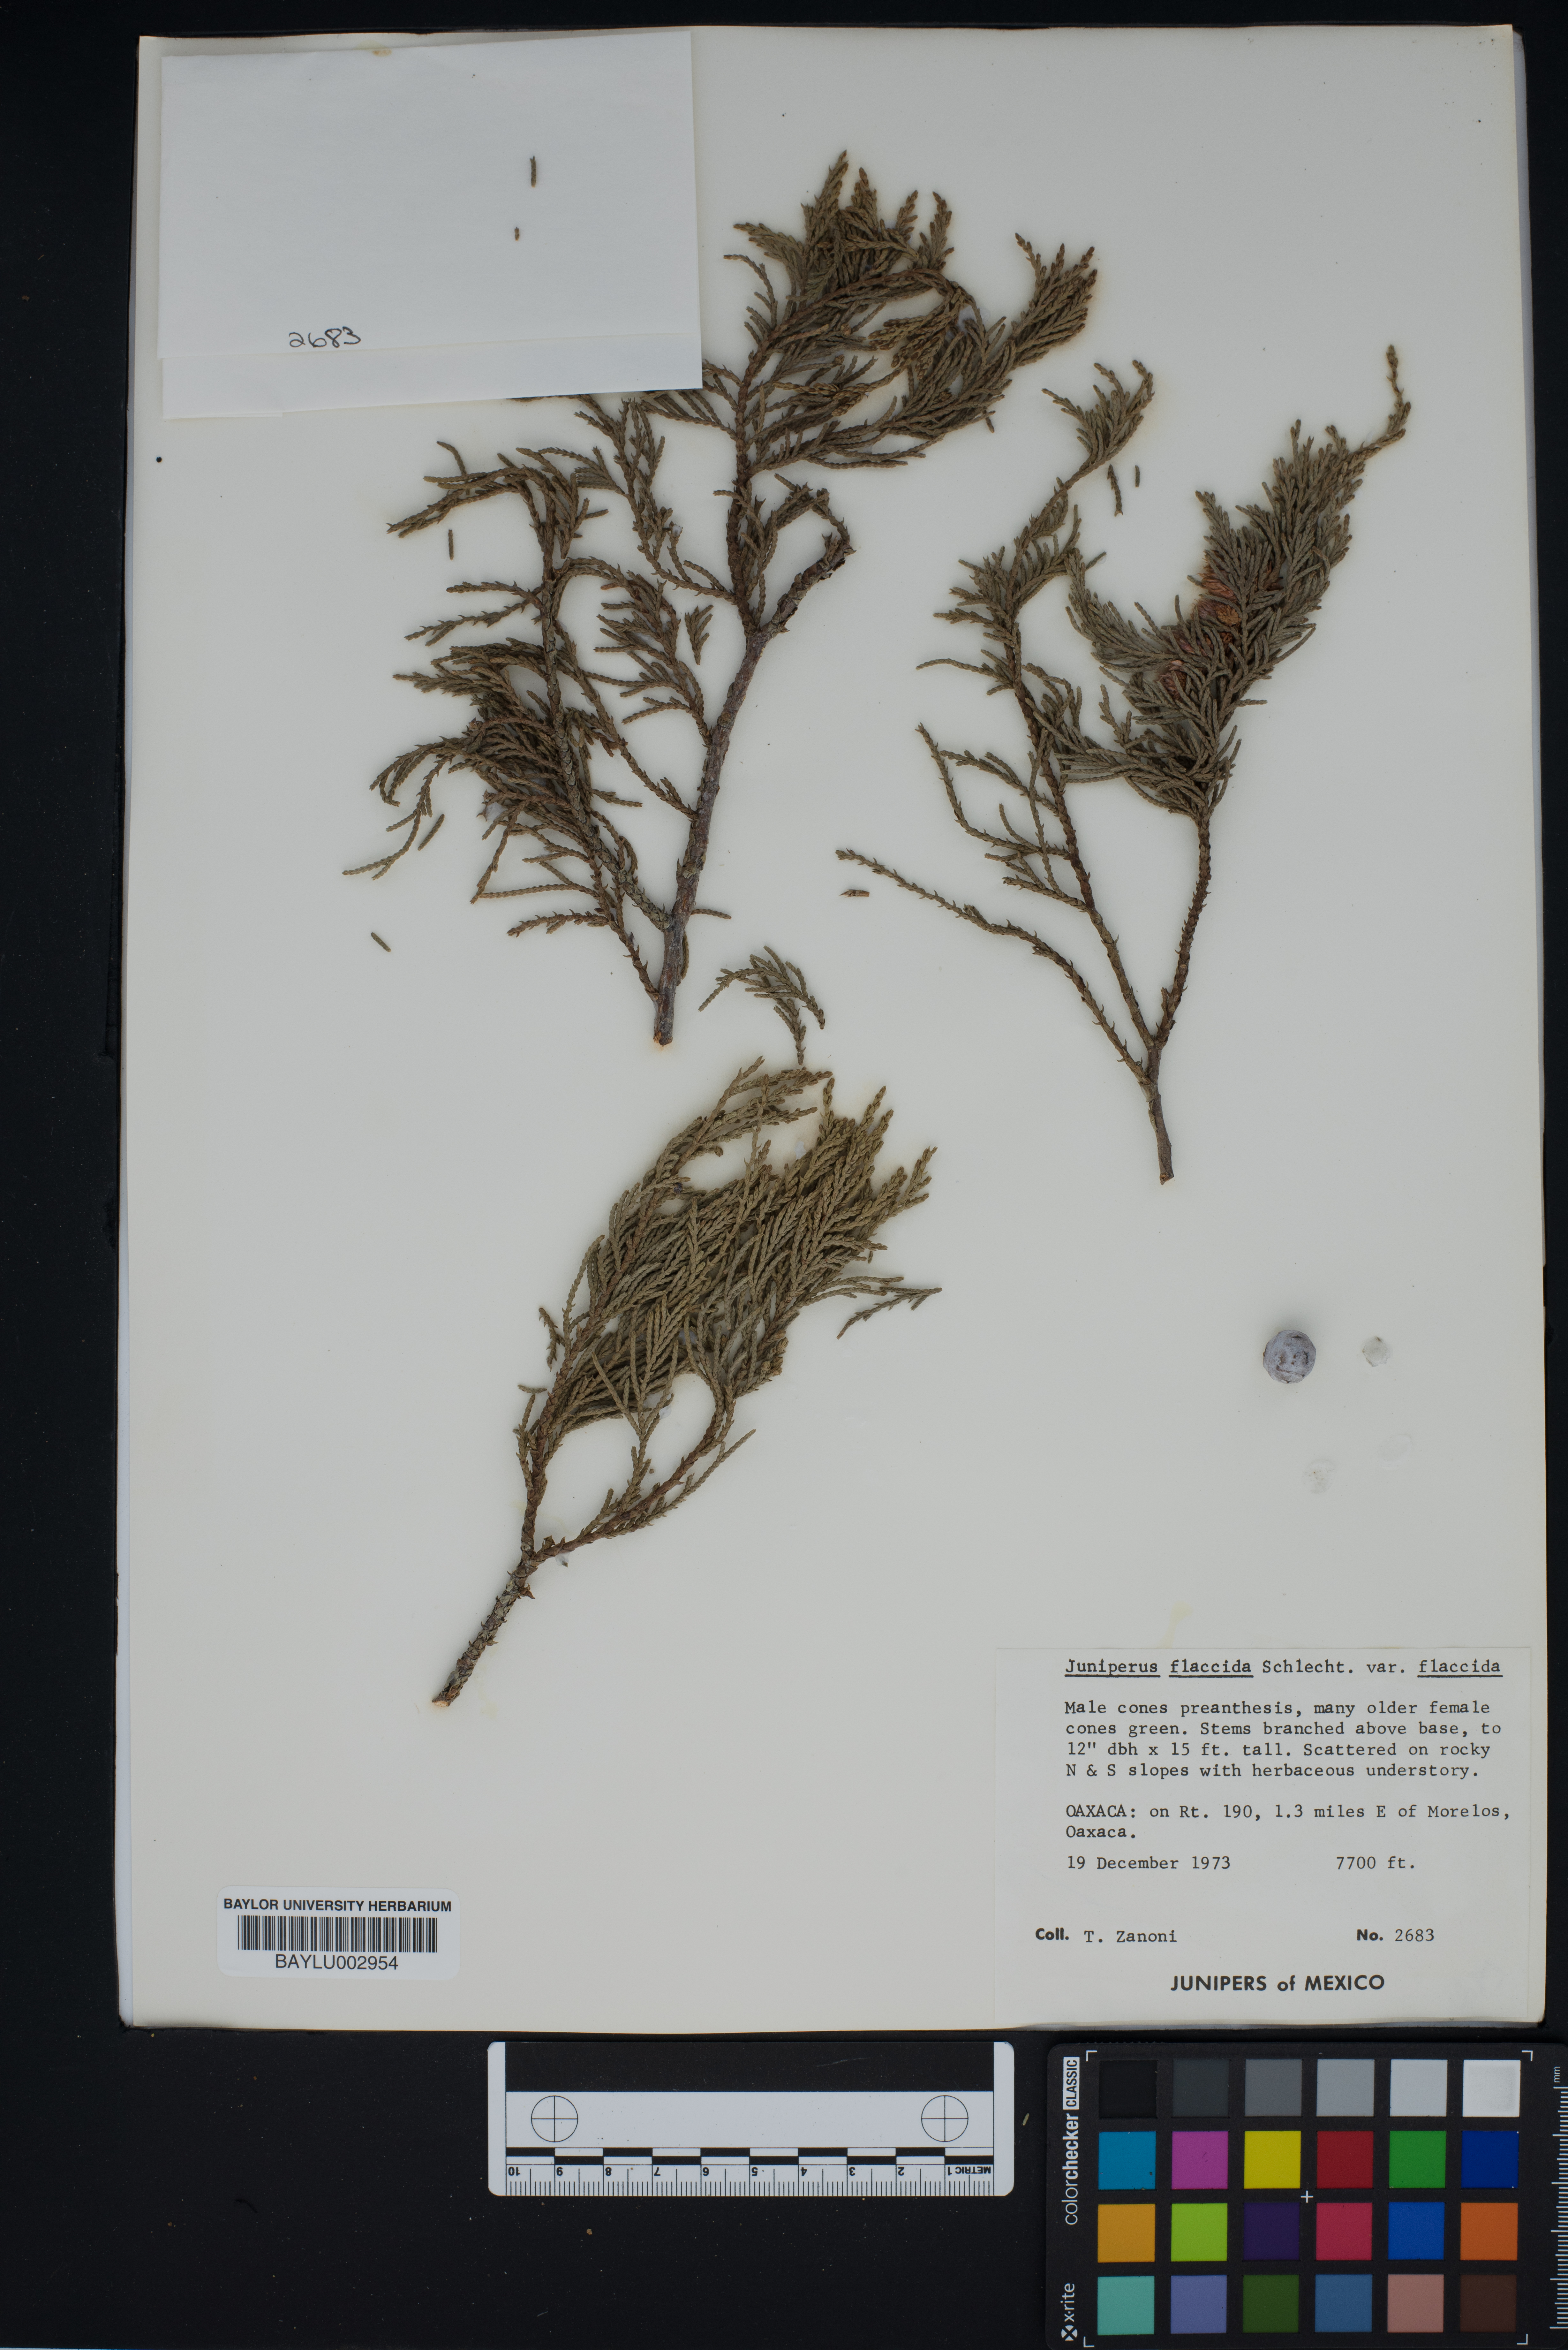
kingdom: Plantae
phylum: Tracheophyta
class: Pinopsida
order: Pinales
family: Cupressaceae
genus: Juniperus
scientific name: Juniperus flaccida
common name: Drooping juniper
